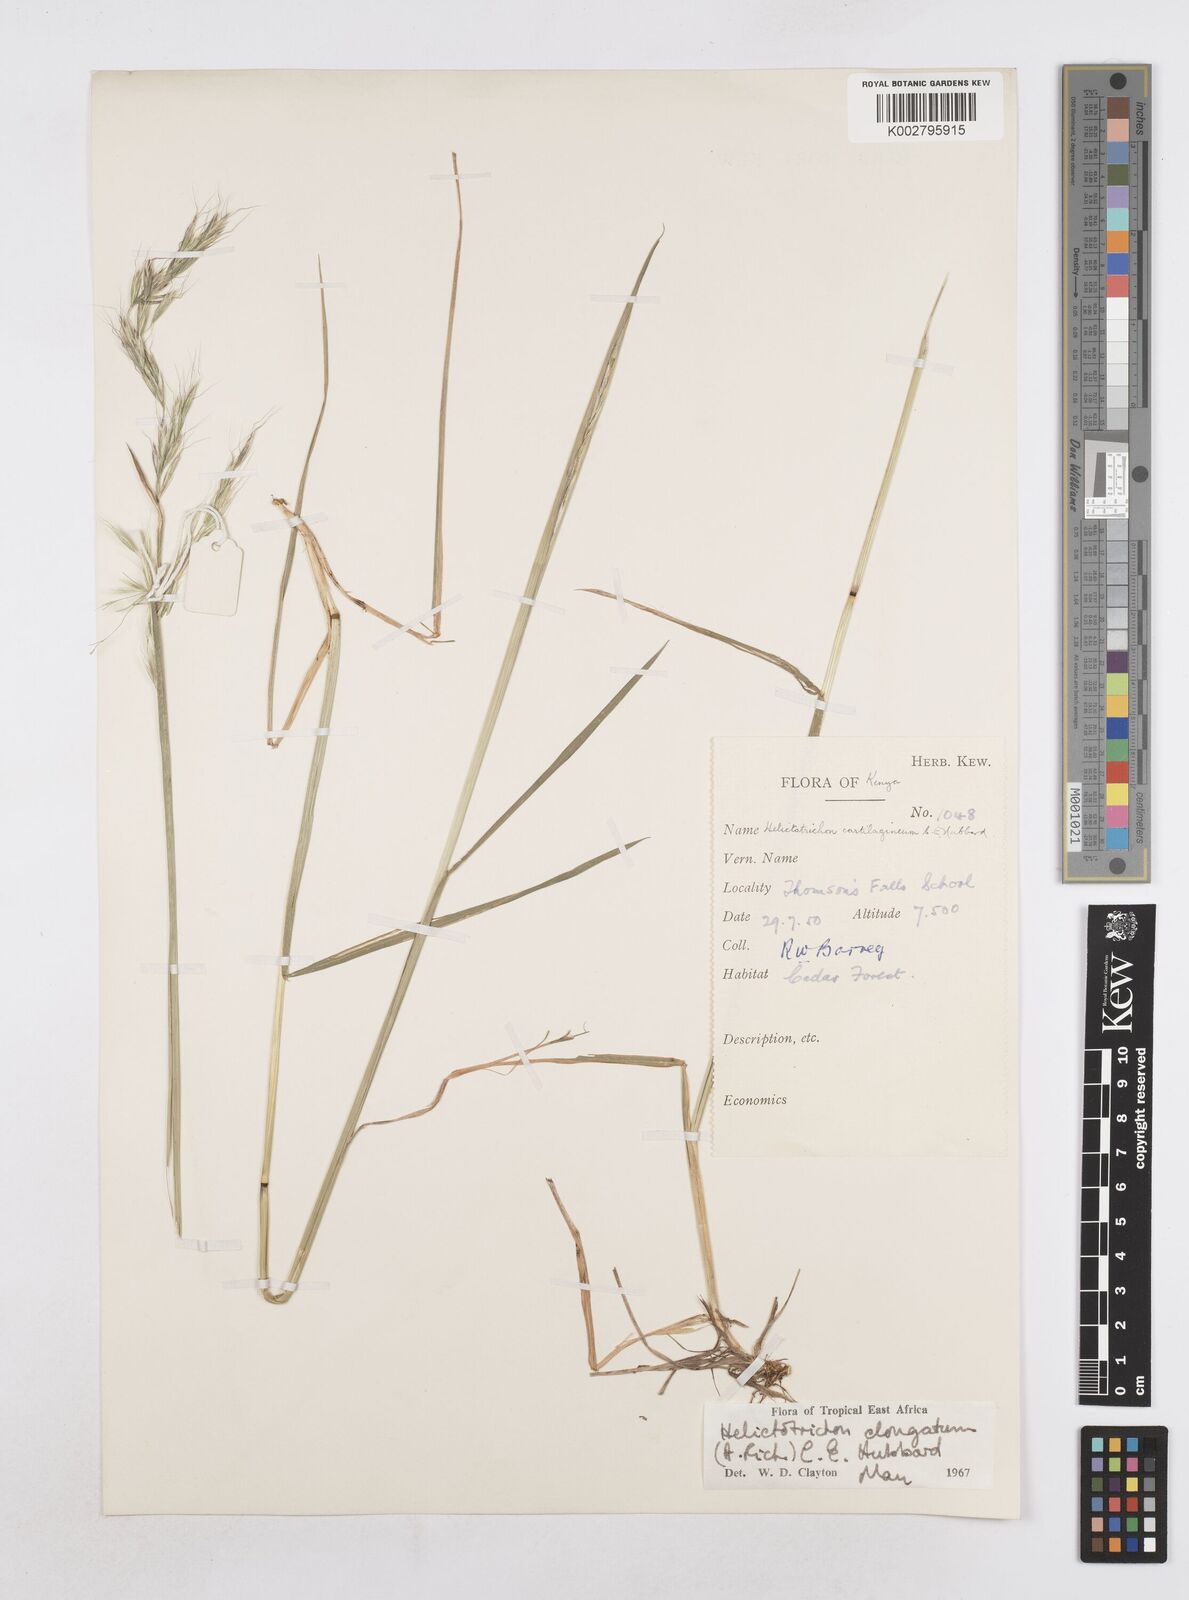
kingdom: Plantae
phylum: Tracheophyta
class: Liliopsida
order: Poales
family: Poaceae
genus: Trisetopsis
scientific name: Trisetopsis elongata
